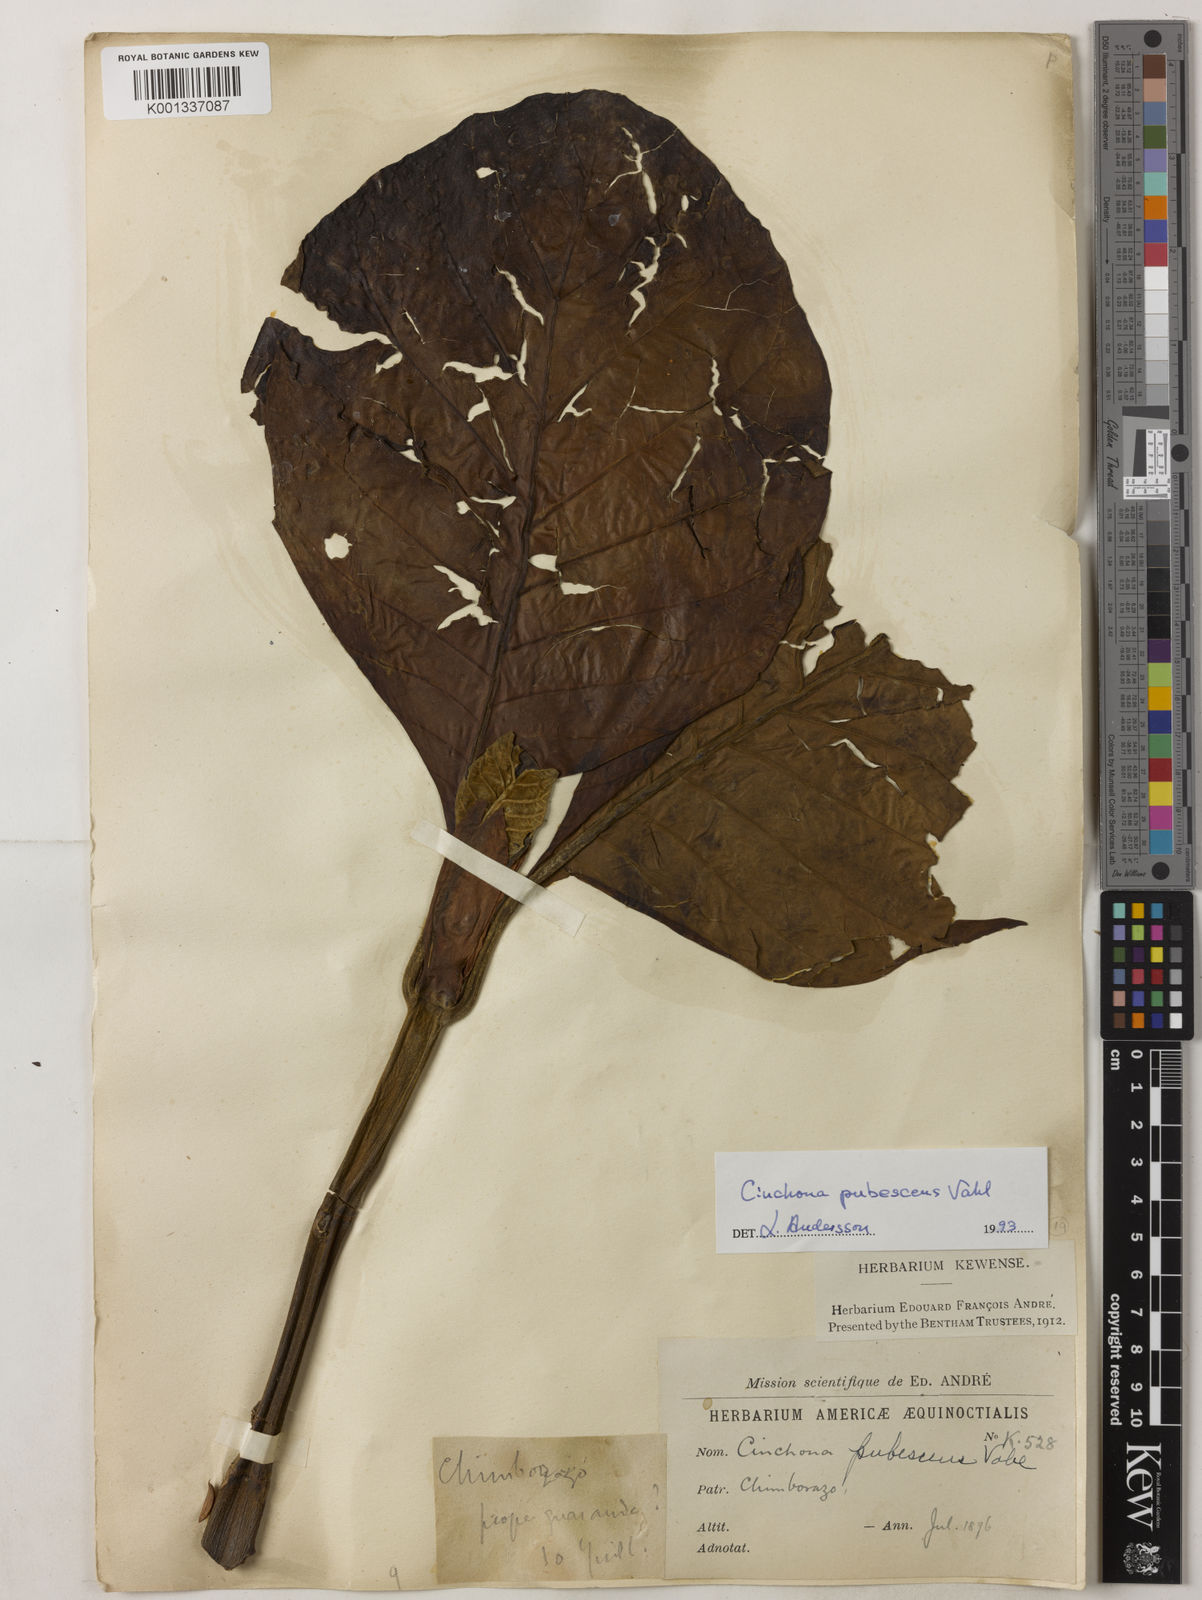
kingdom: Plantae
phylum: Tracheophyta
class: Magnoliopsida
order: Gentianales
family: Rubiaceae
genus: Cinchona
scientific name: Cinchona pubescens
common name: Quinine
